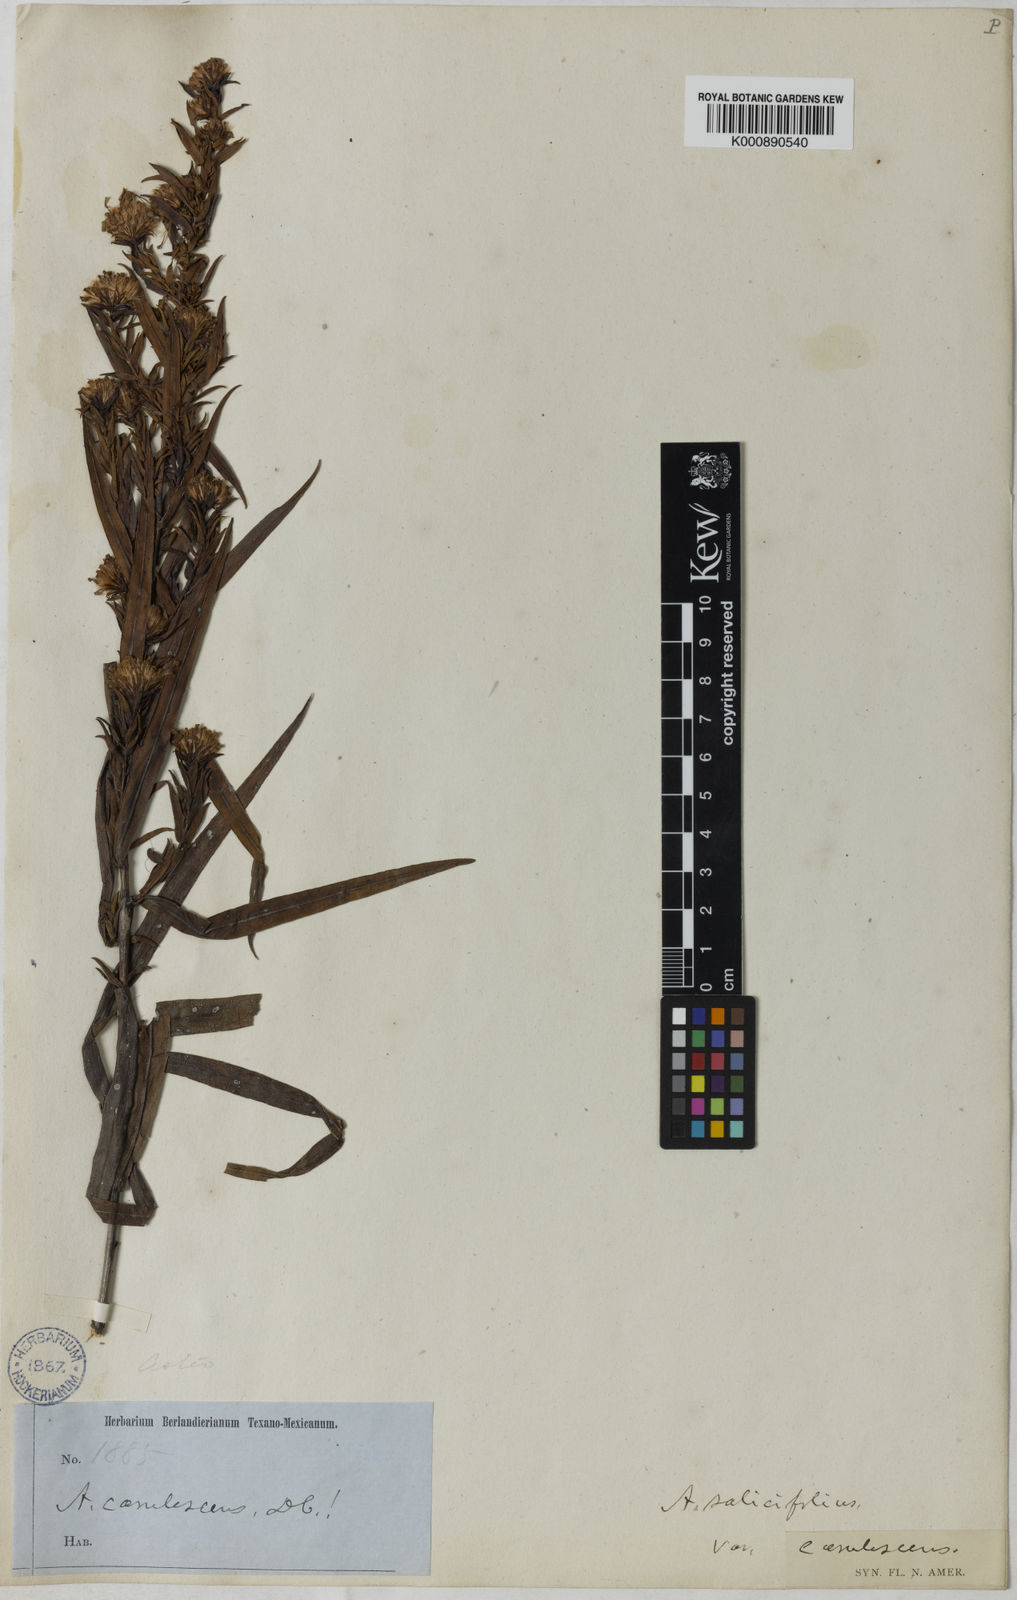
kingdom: Plantae
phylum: Tracheophyta
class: Magnoliopsida
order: Asterales
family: Asteraceae
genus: Symphyotrichum
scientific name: Symphyotrichum praealtum
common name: Willow aster
